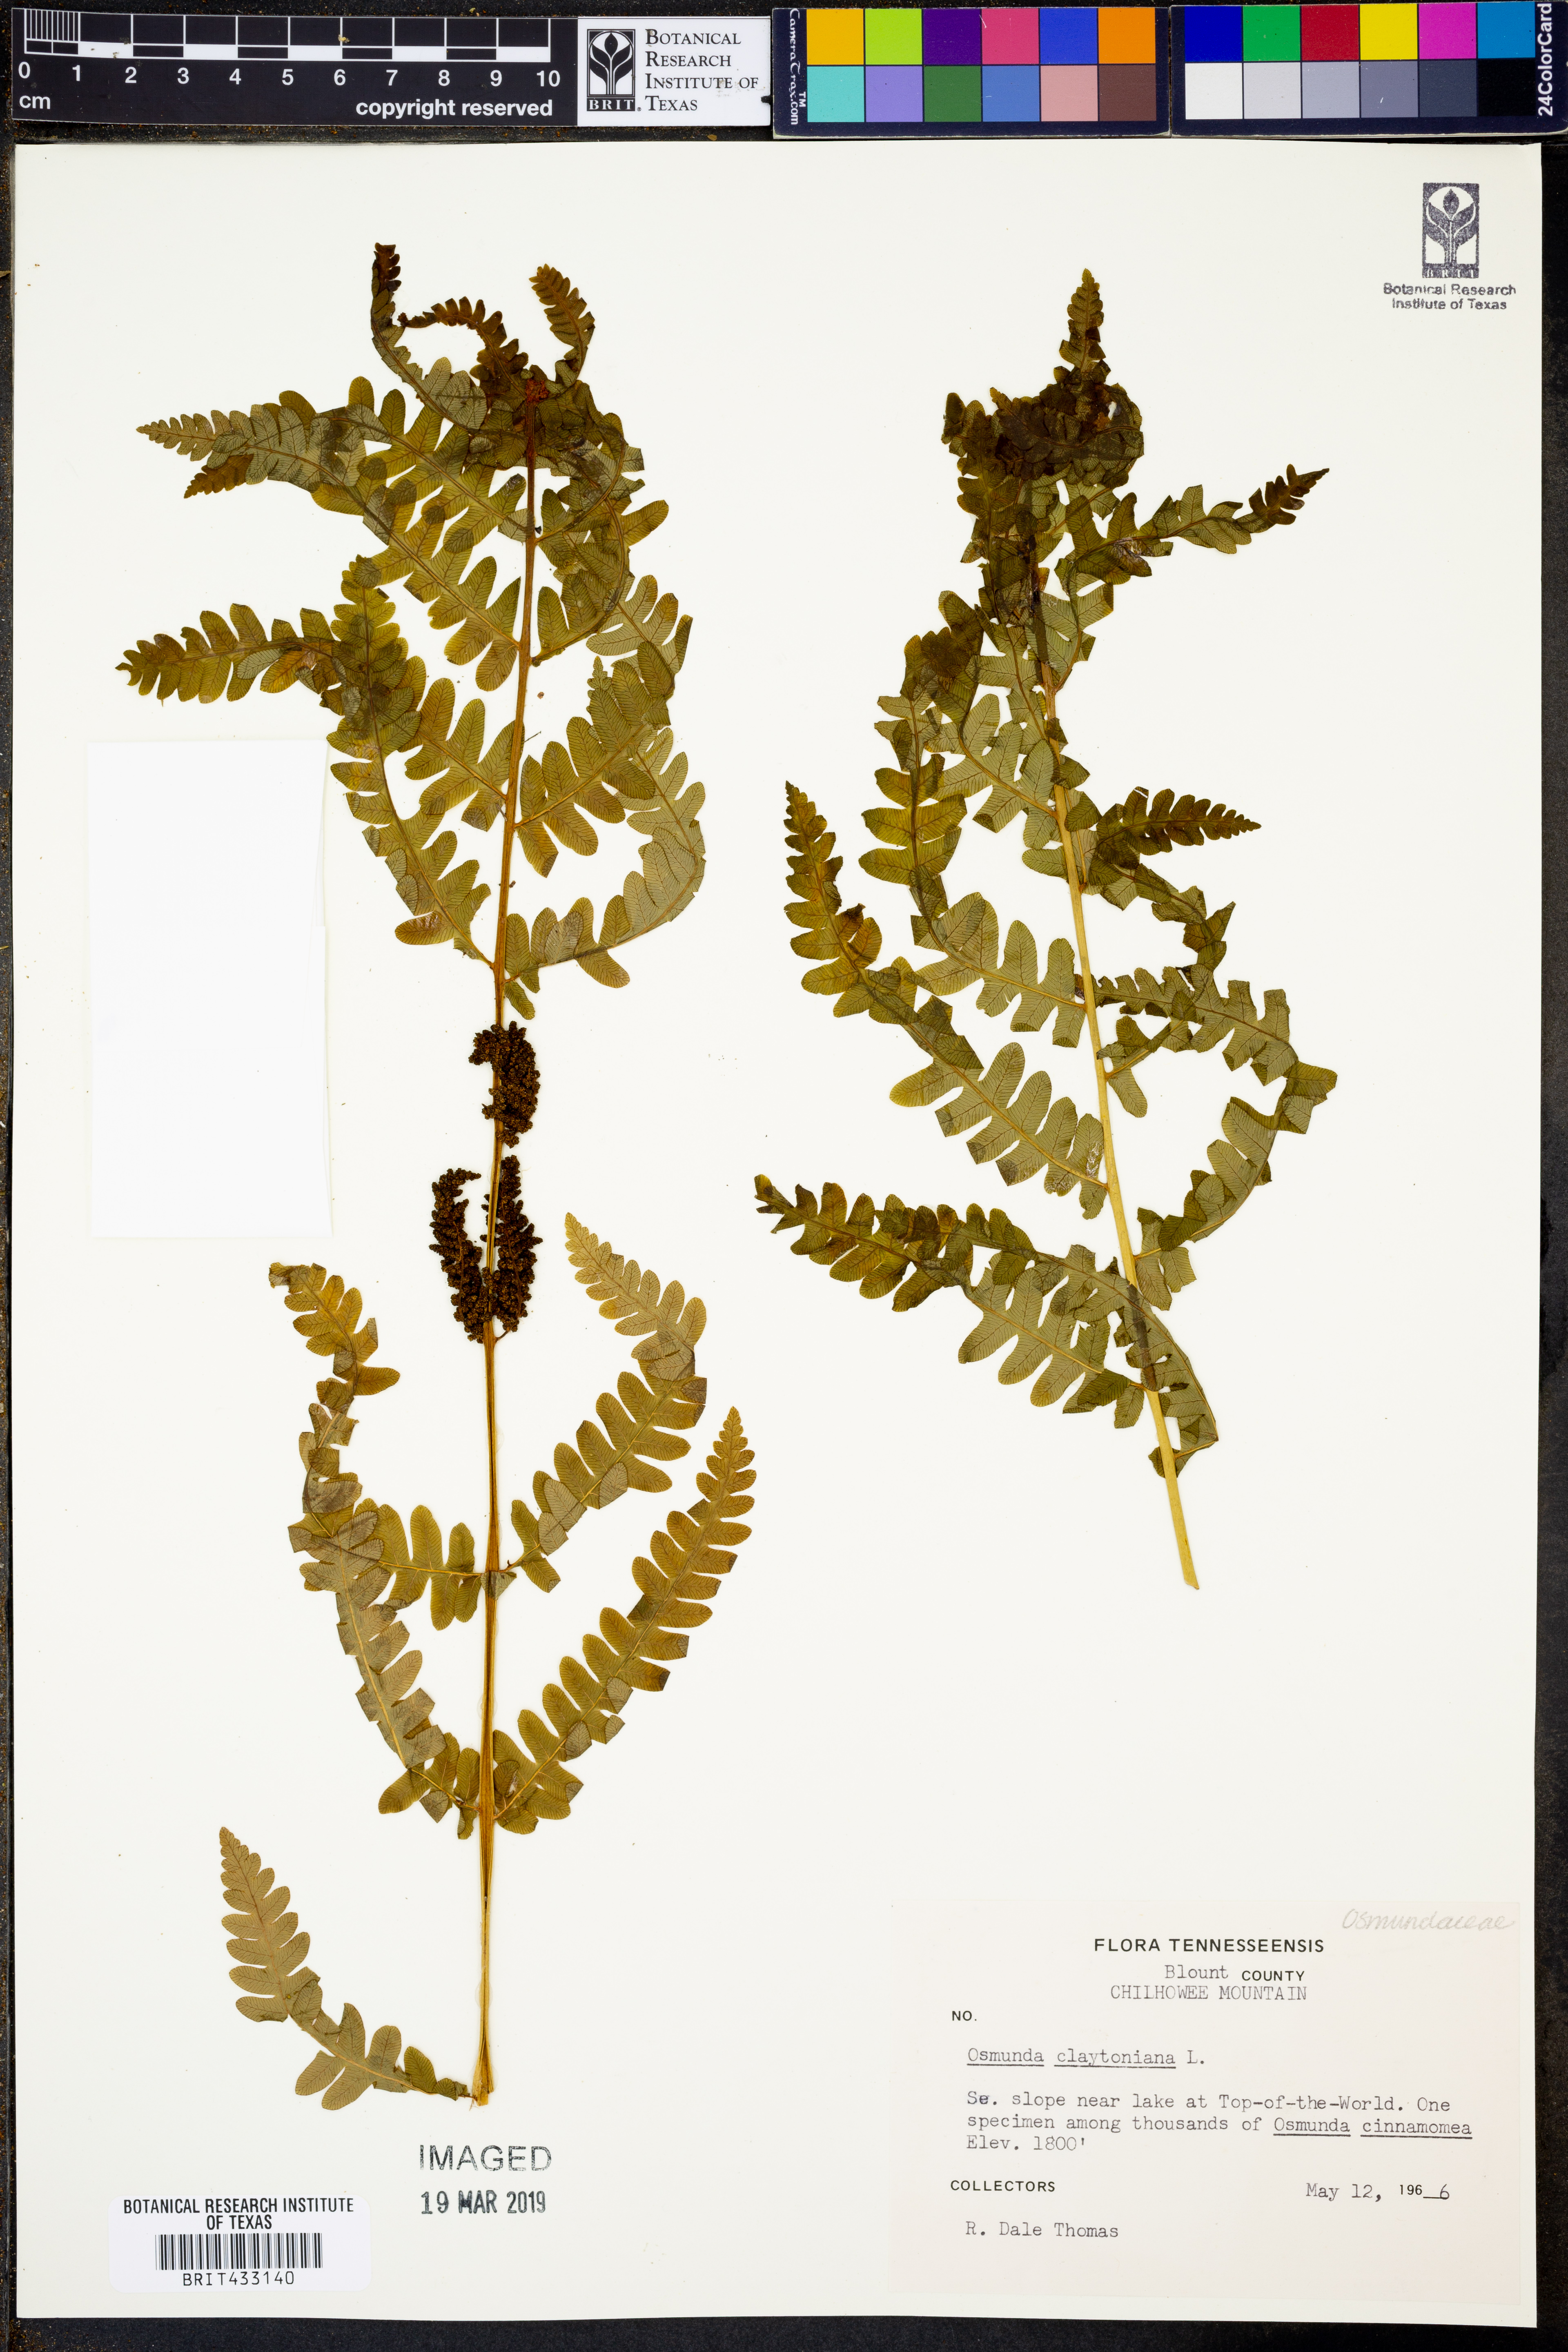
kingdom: Plantae
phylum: Tracheophyta
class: Polypodiopsida
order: Osmundales
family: Osmundaceae
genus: Claytosmunda
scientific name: Claytosmunda claytoniana
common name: Clayton's fern
